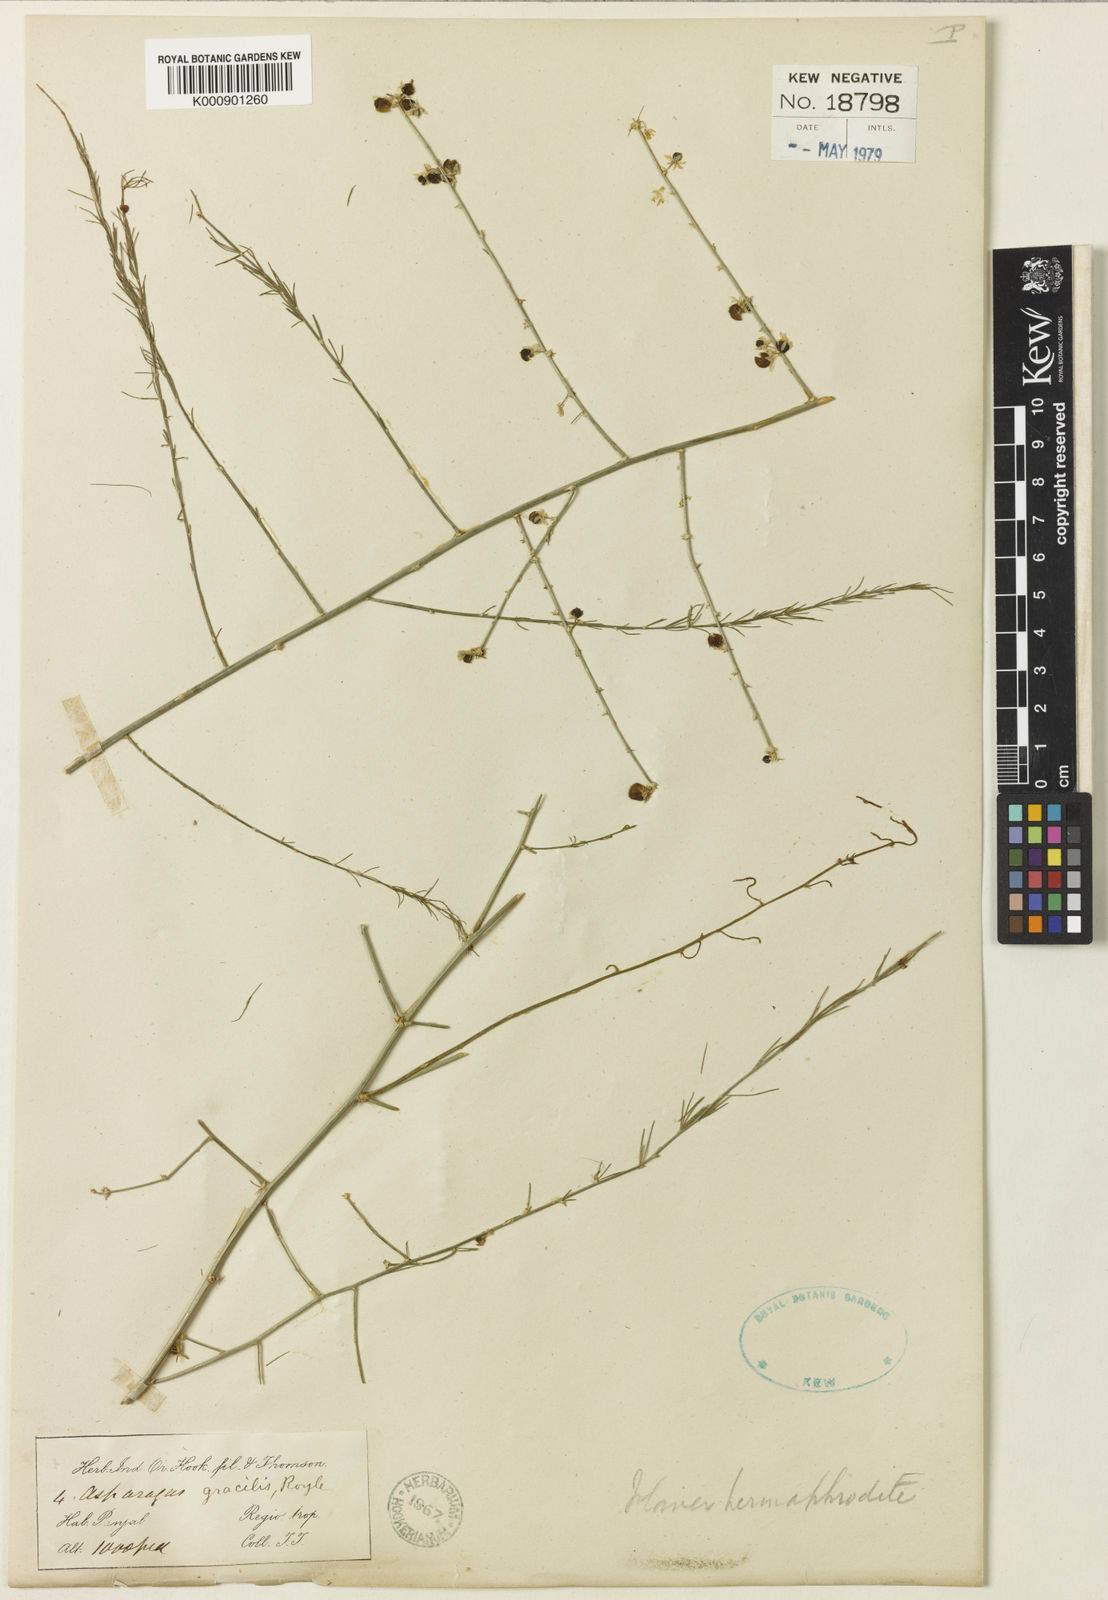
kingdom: Plantae
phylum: Tracheophyta
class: Liliopsida
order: Asparagales
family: Asparagaceae
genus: Asparagus
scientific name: Asparagus
